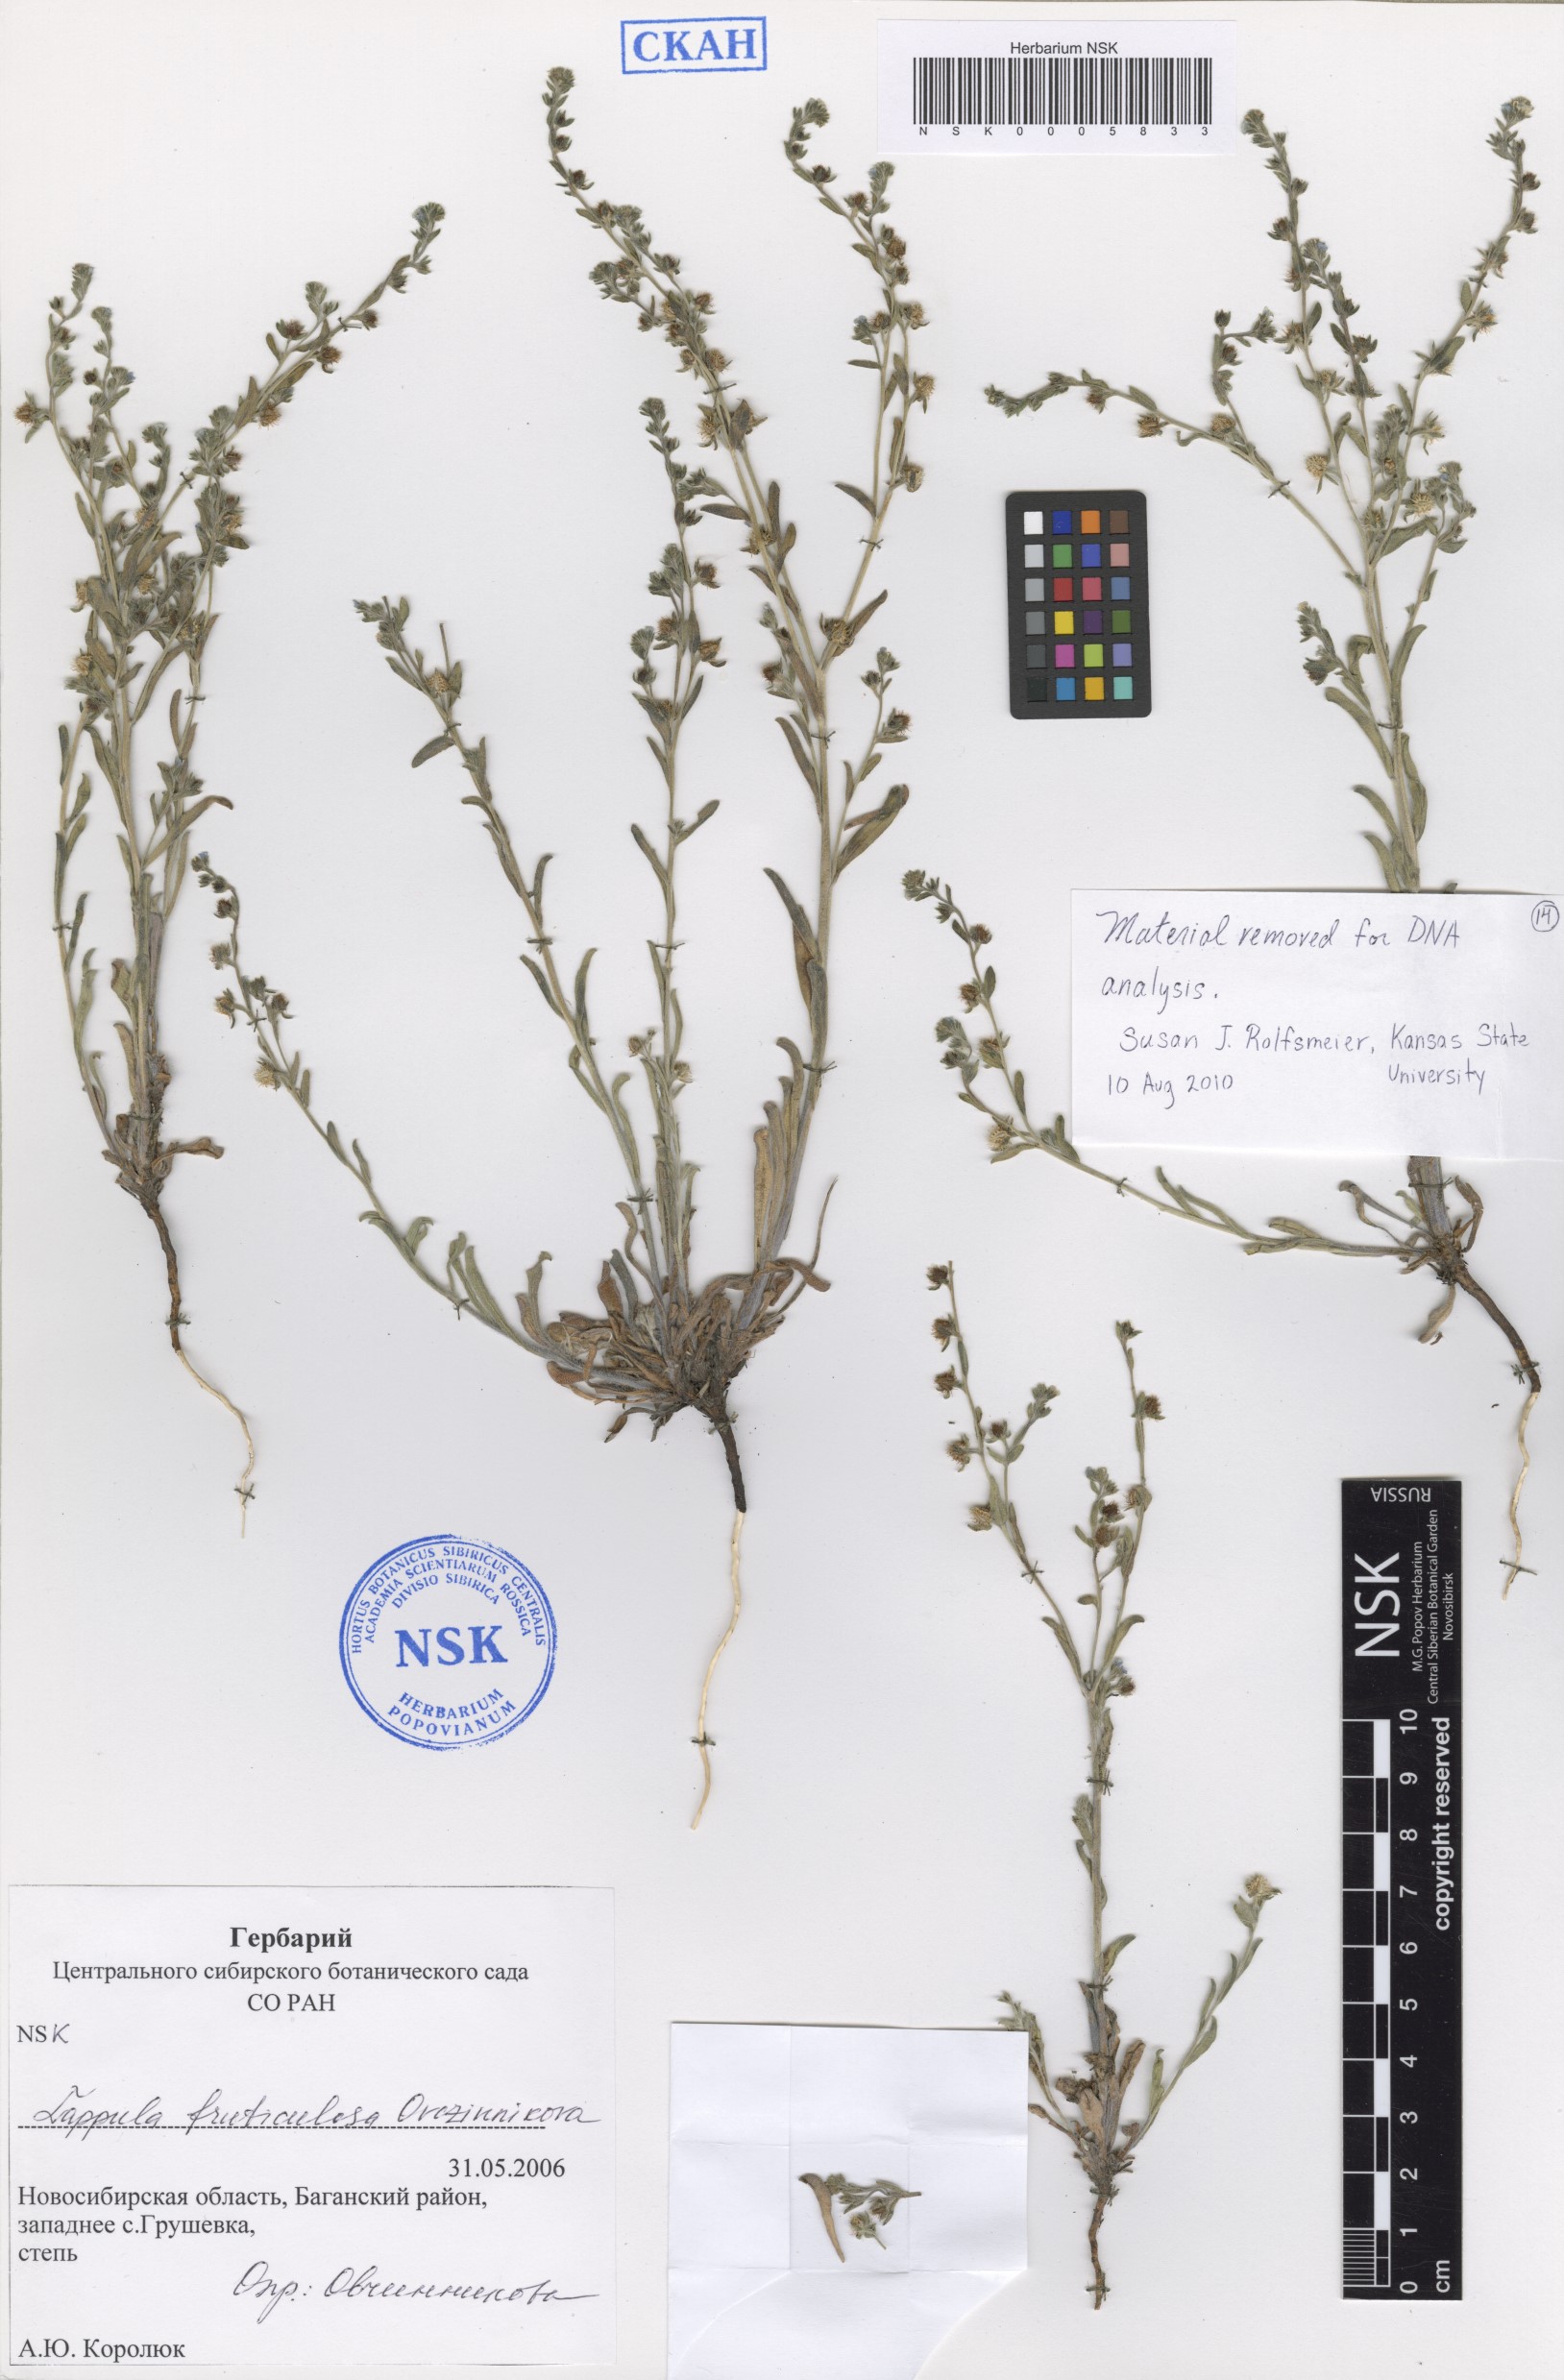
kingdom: Plantae
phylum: Tracheophyta
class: Magnoliopsida
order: Boraginales
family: Boraginaceae
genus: Lappula
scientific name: Lappula fruticulosa
